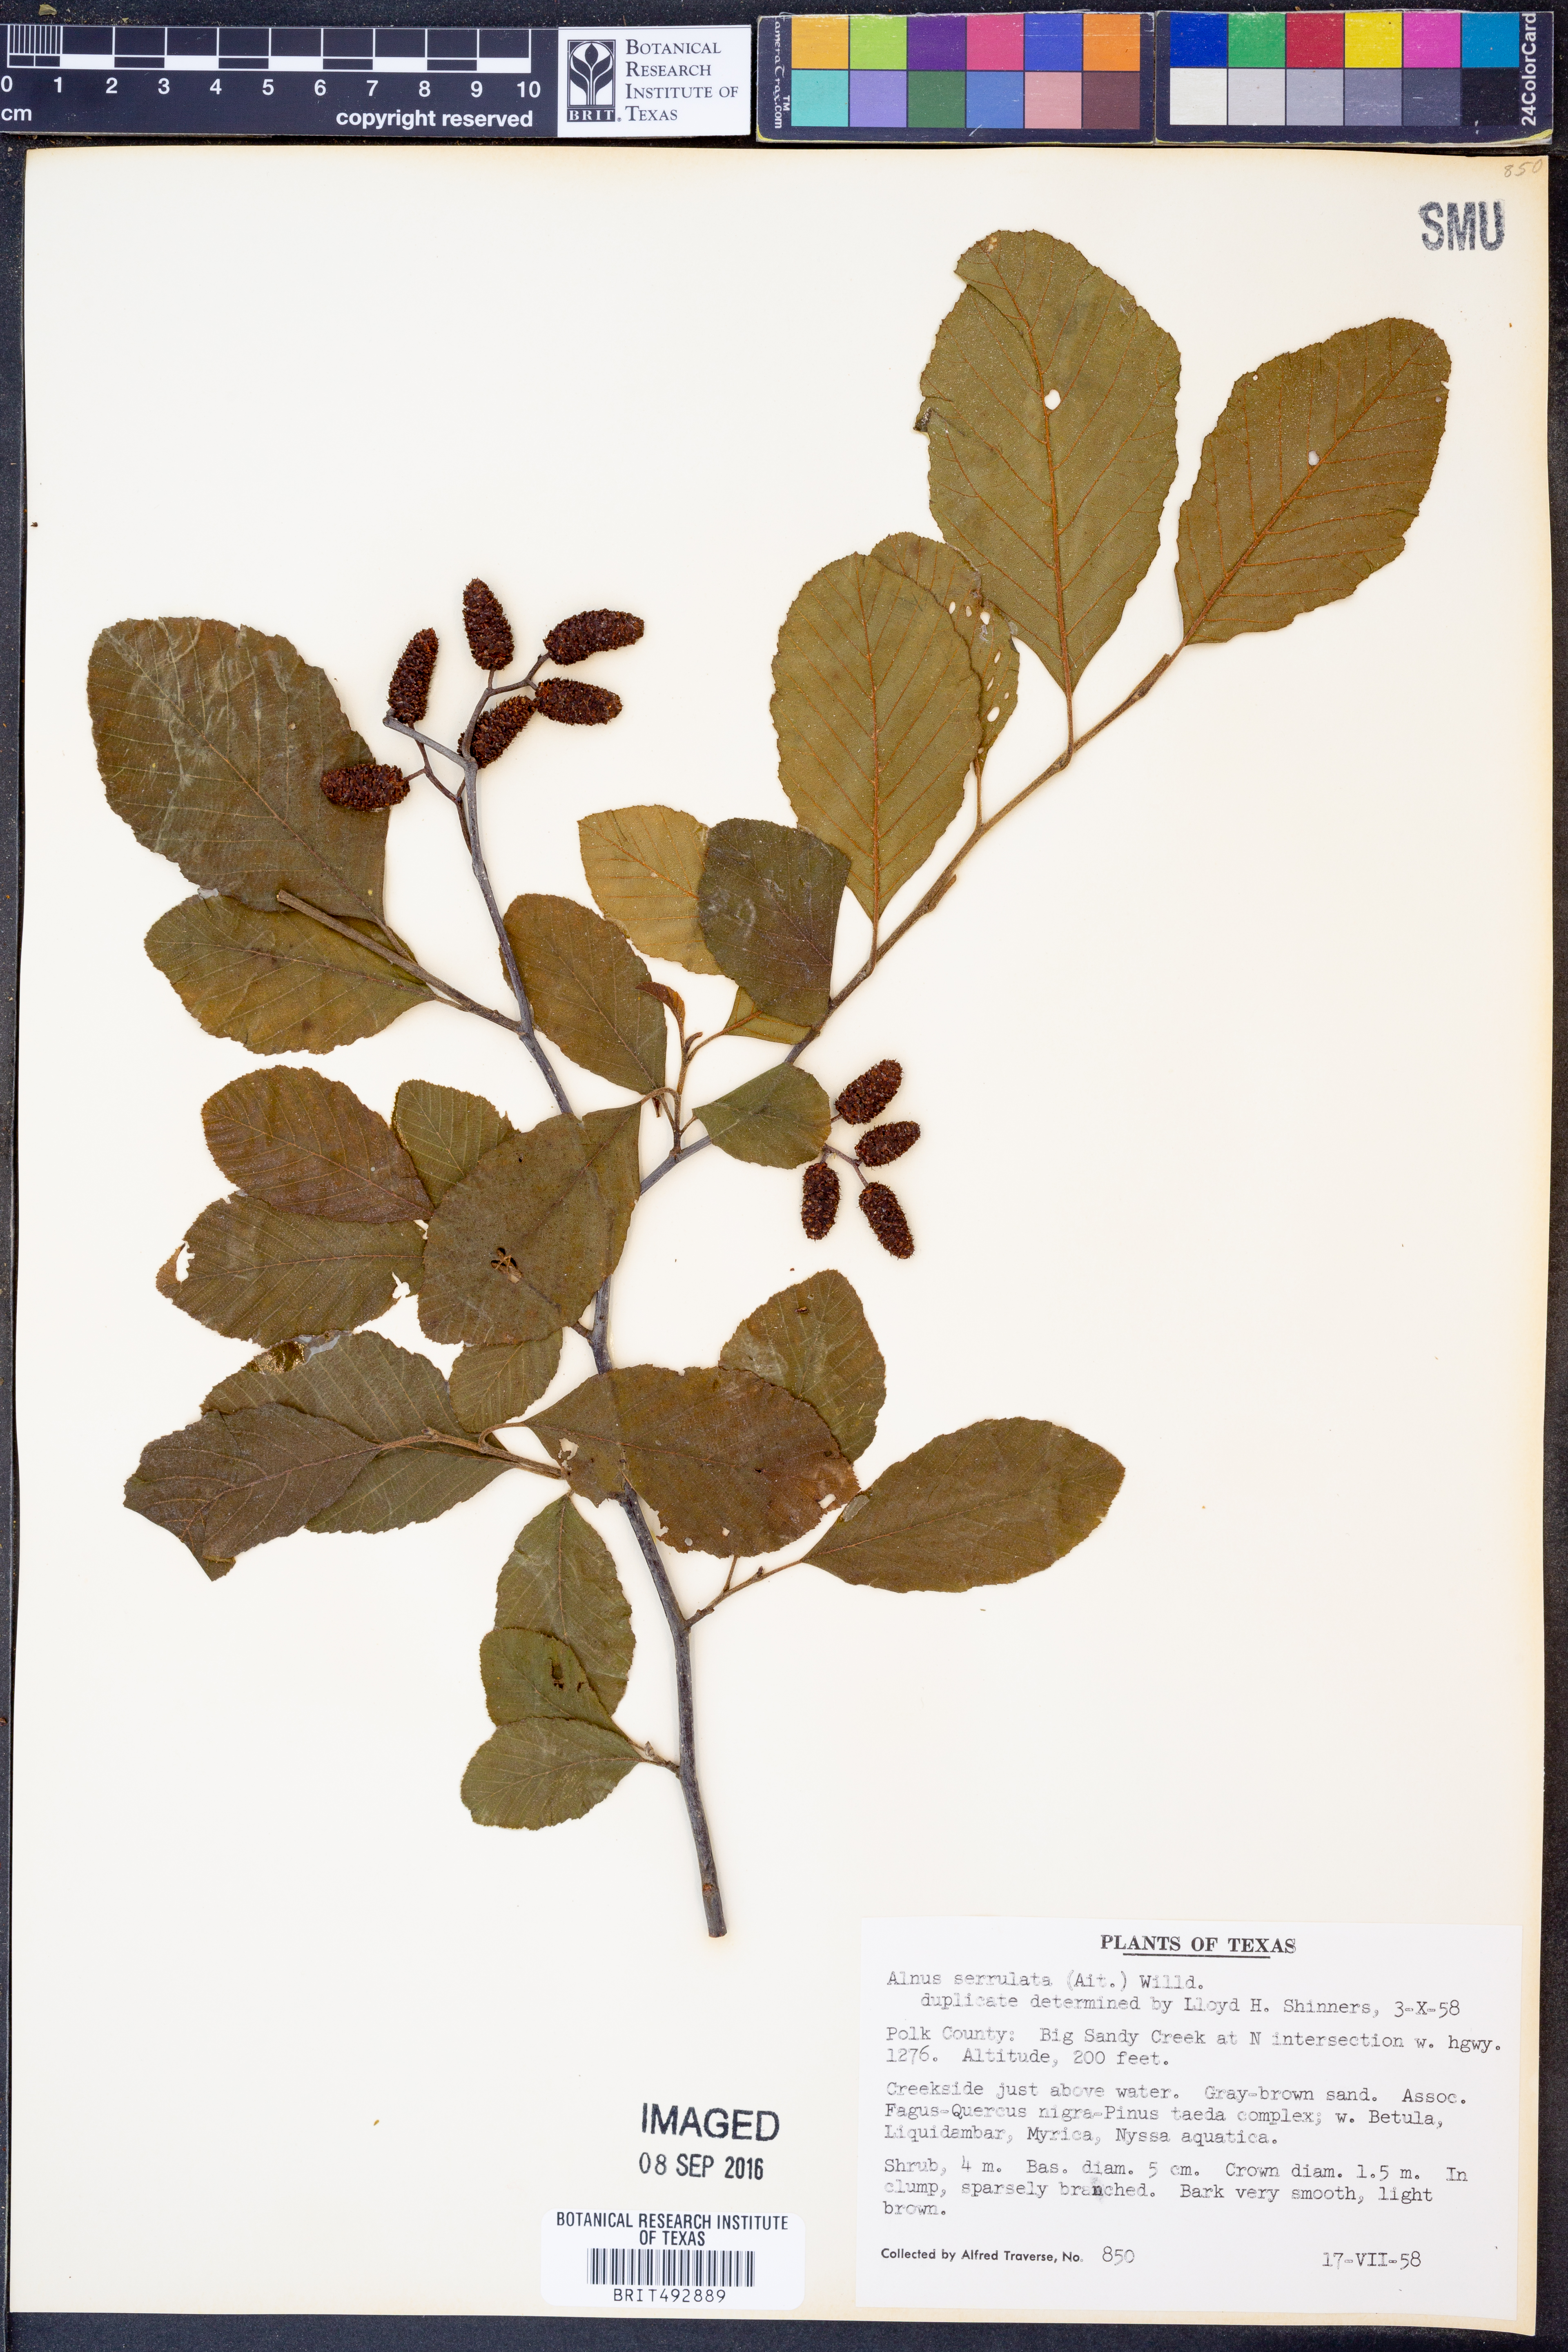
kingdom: Plantae
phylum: Tracheophyta
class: Magnoliopsida
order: Fagales
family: Betulaceae
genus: Alnus
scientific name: Alnus serrulata
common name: Hazel alder
